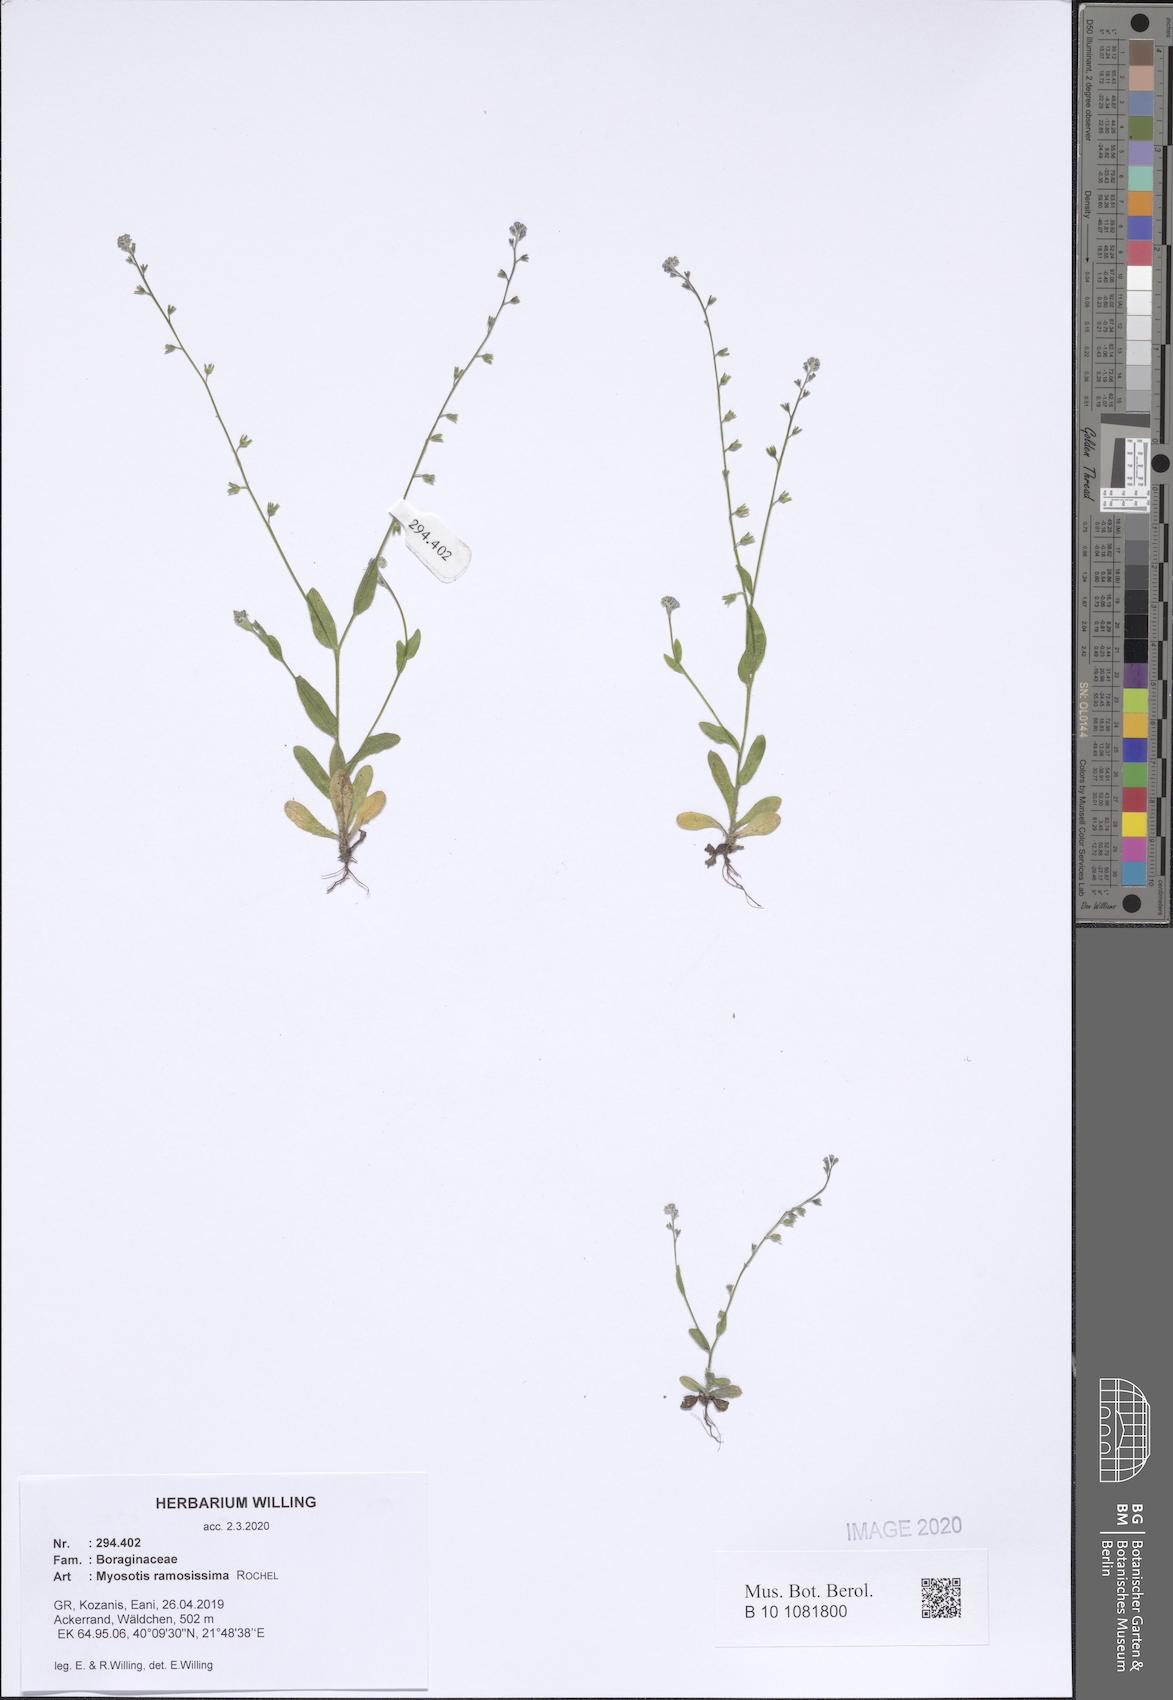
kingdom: Plantae
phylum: Tracheophyta
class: Magnoliopsida
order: Boraginales
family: Boraginaceae
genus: Myosotis
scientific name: Myosotis ramosissima
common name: Early forget-me-not
